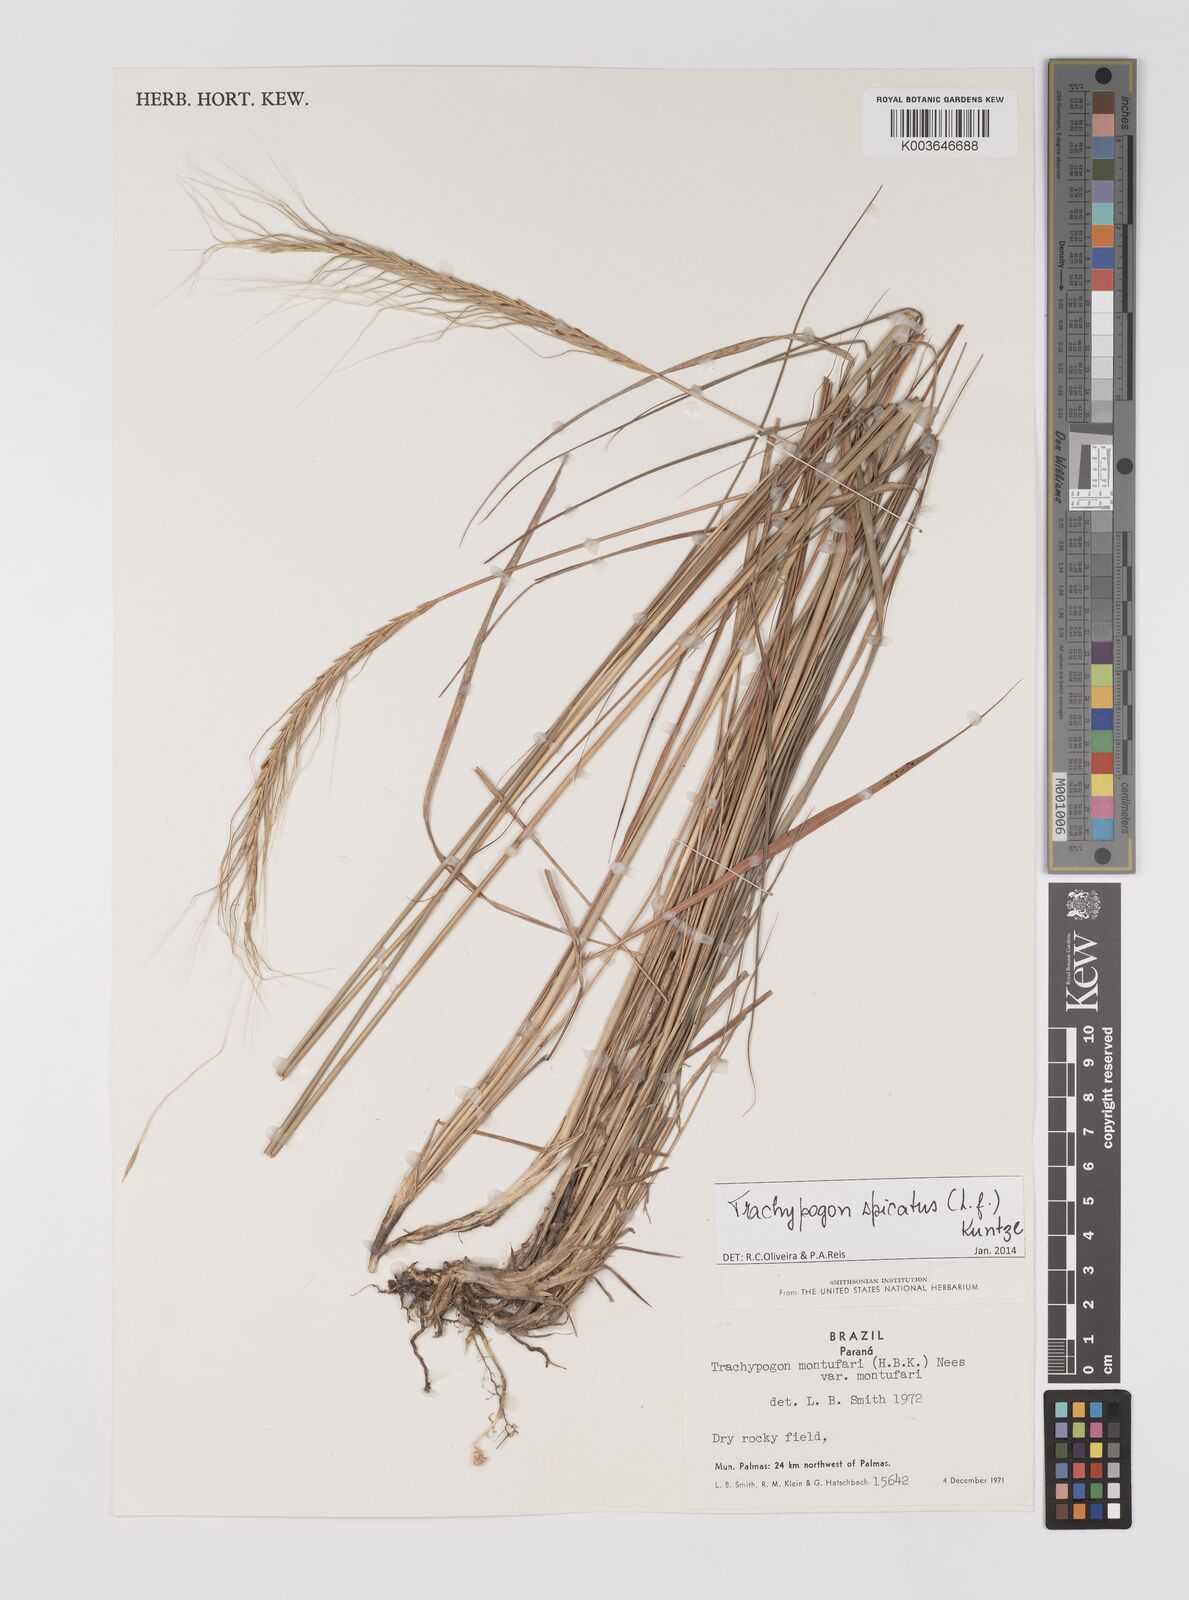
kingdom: Plantae
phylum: Tracheophyta
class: Liliopsida
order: Poales
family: Poaceae
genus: Trachypogon
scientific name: Trachypogon spicatus
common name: Crinkle-awn
